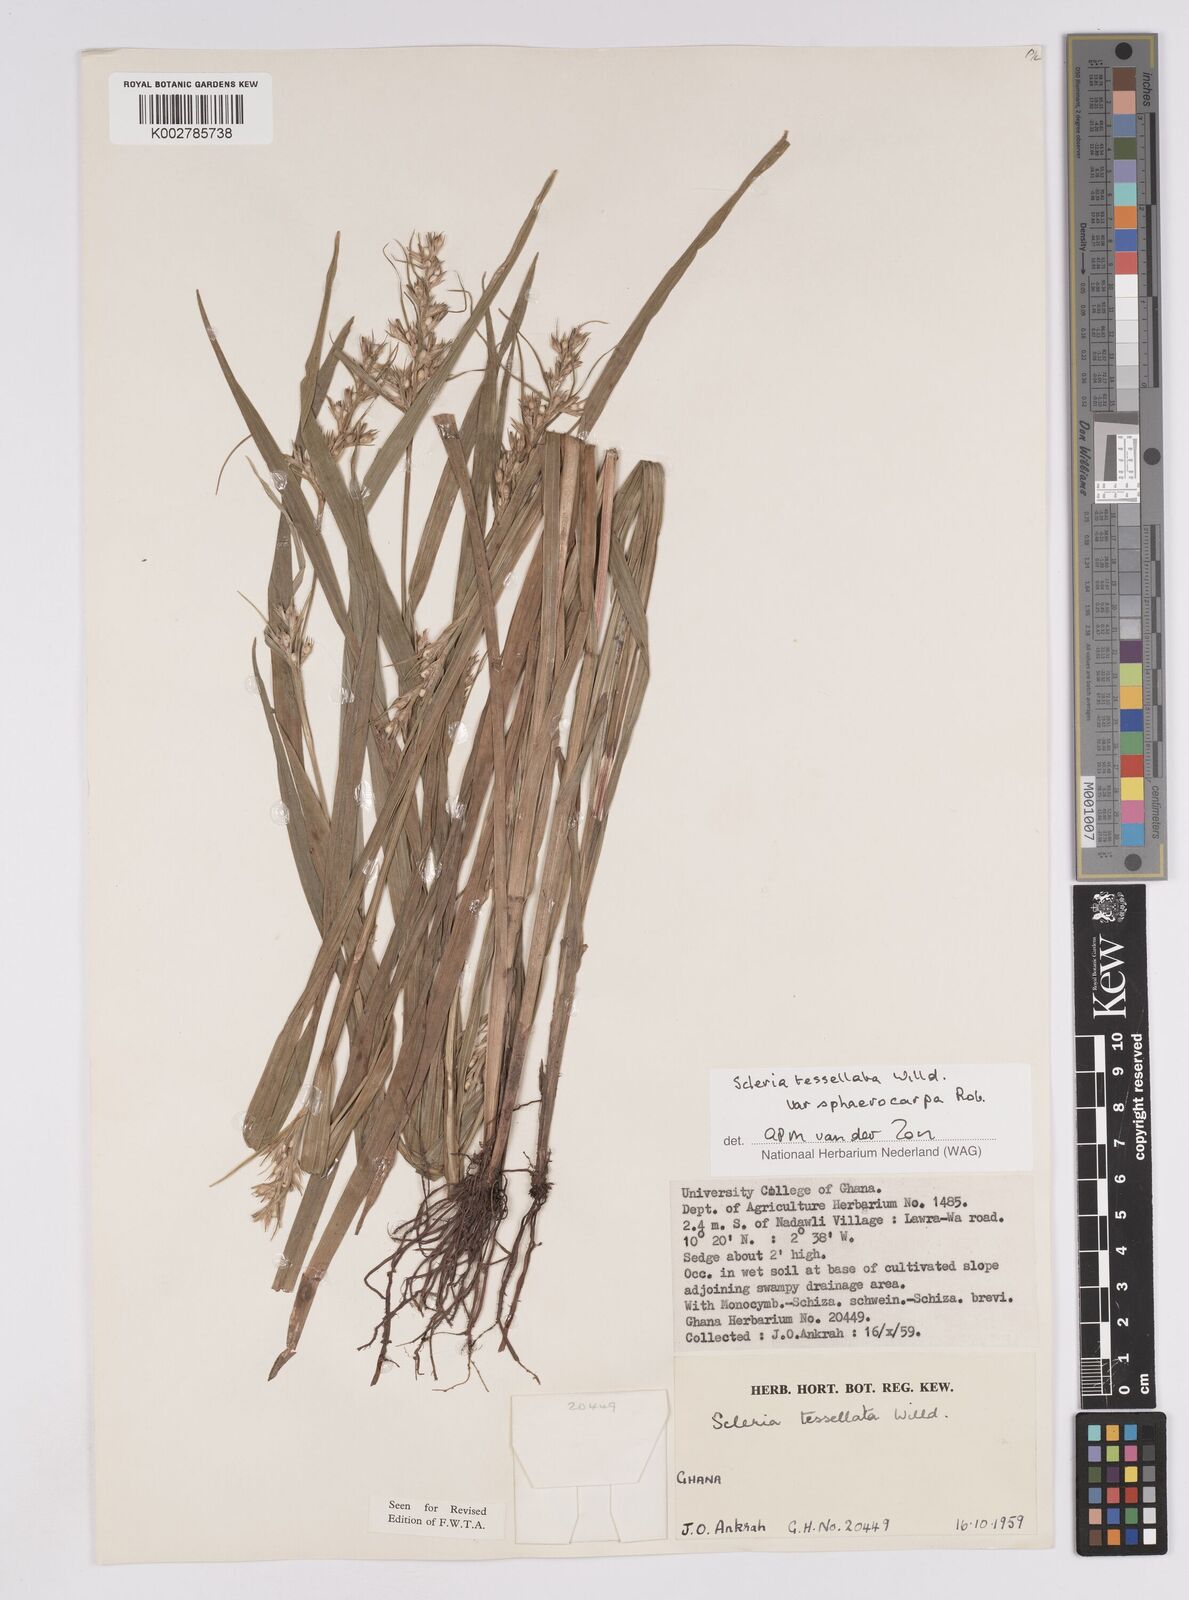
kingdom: Plantae
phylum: Tracheophyta
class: Liliopsida
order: Poales
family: Cyperaceae
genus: Scleria
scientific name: Scleria tessellata
